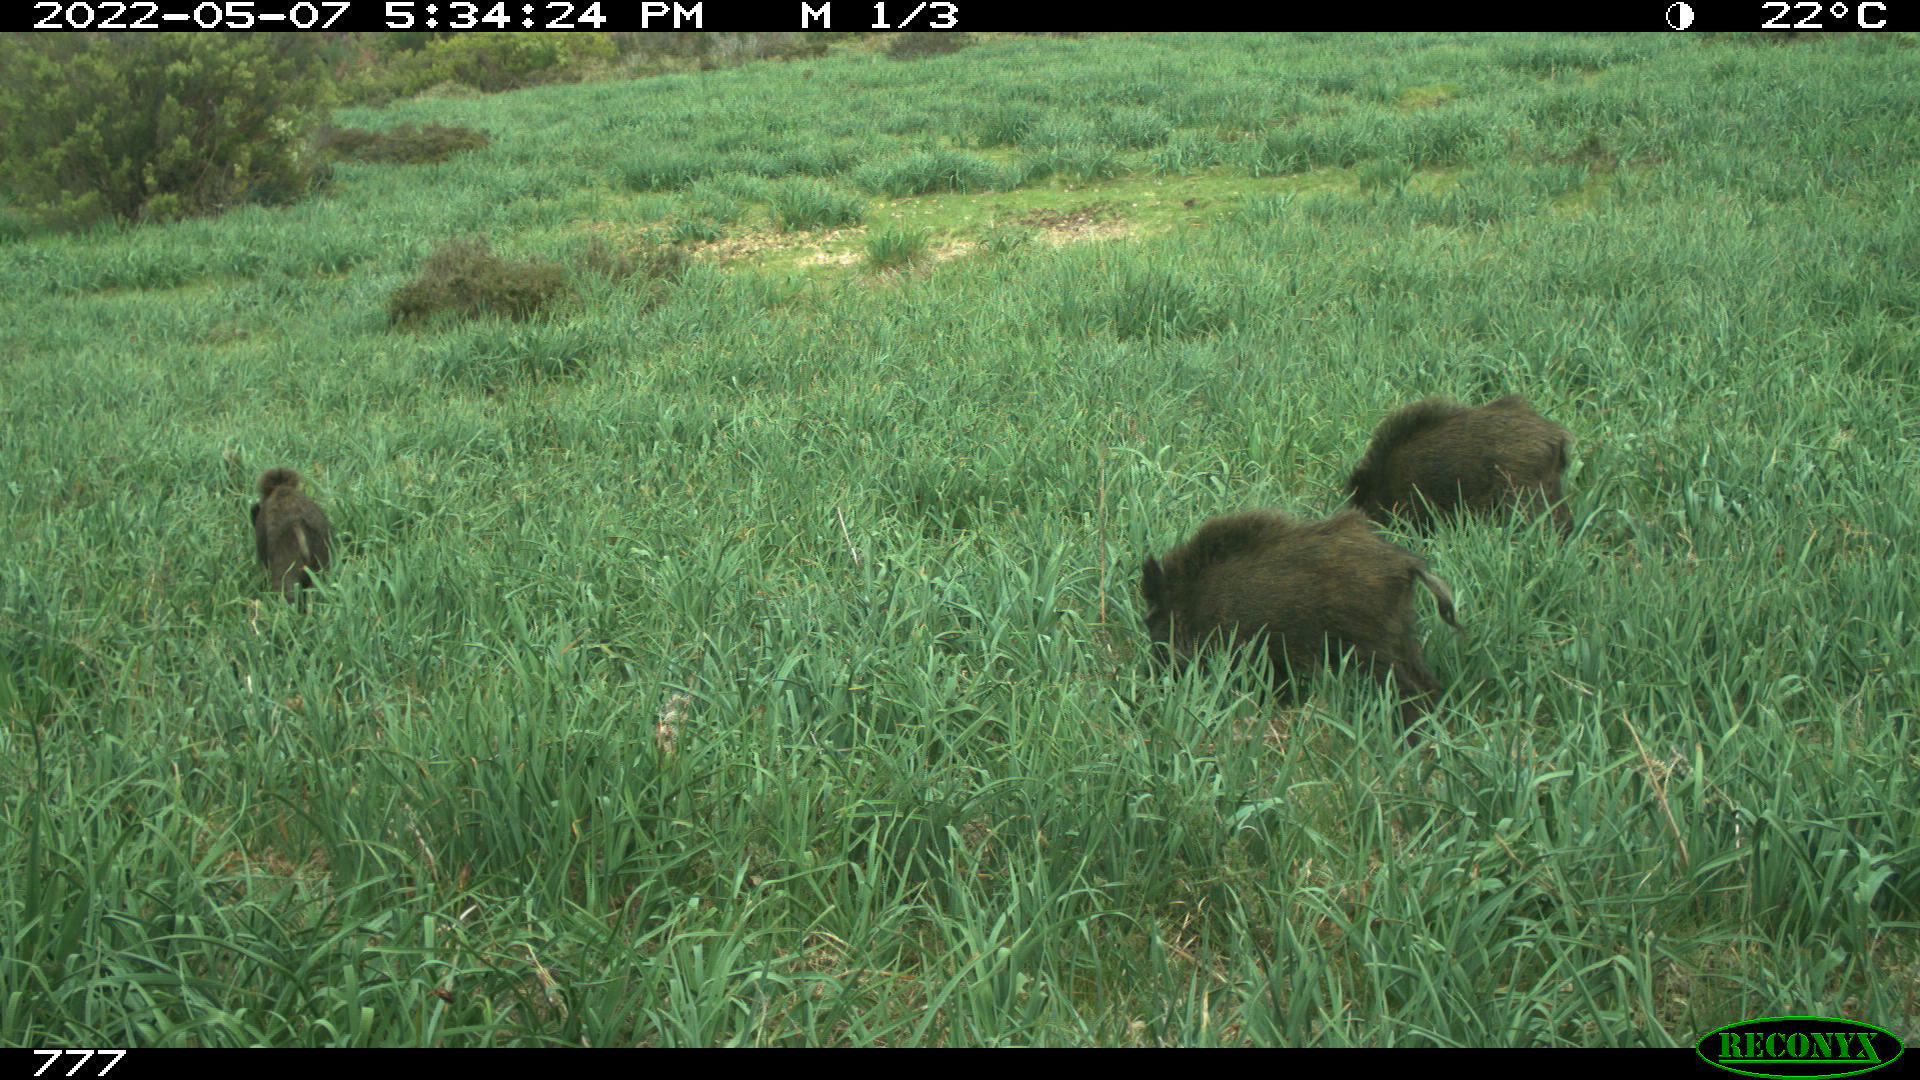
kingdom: Animalia
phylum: Chordata
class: Mammalia
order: Artiodactyla
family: Suidae
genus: Sus
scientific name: Sus scrofa
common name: Wild boar
